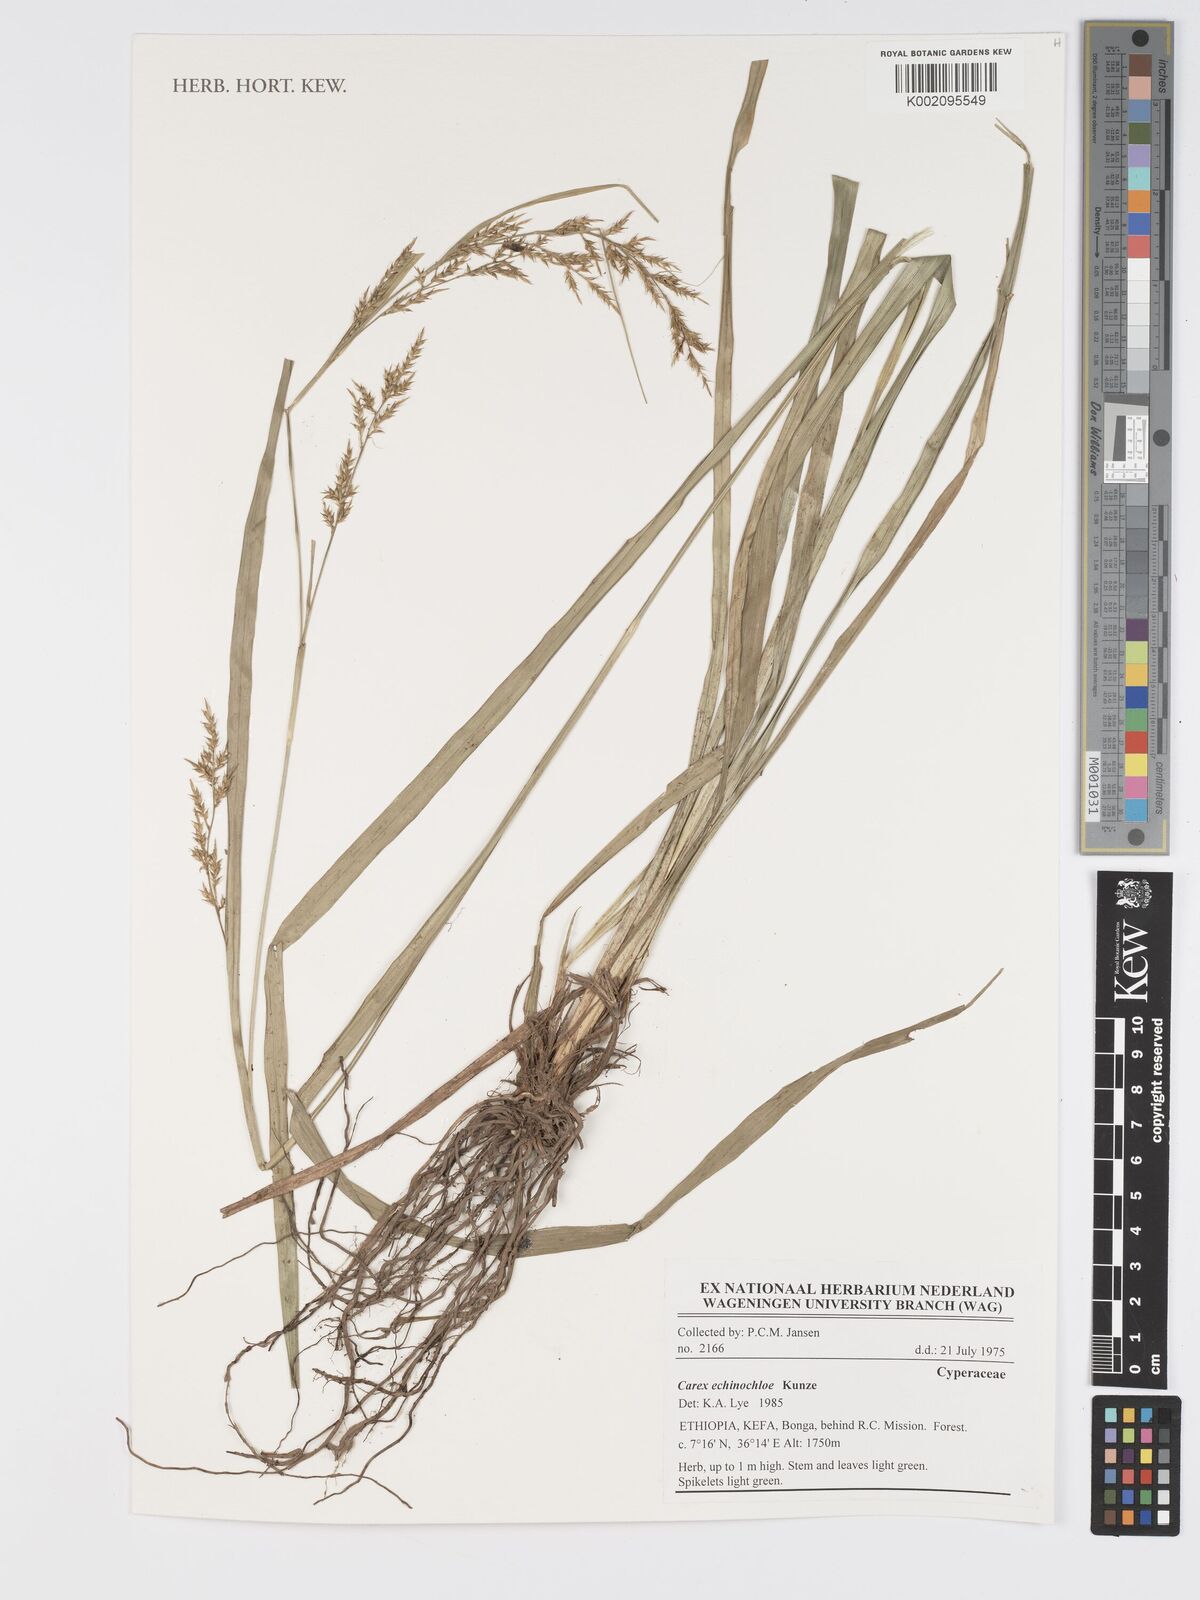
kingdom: Plantae
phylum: Tracheophyta
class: Liliopsida
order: Poales
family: Cyperaceae
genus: Carex
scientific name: Carex echinochloe
